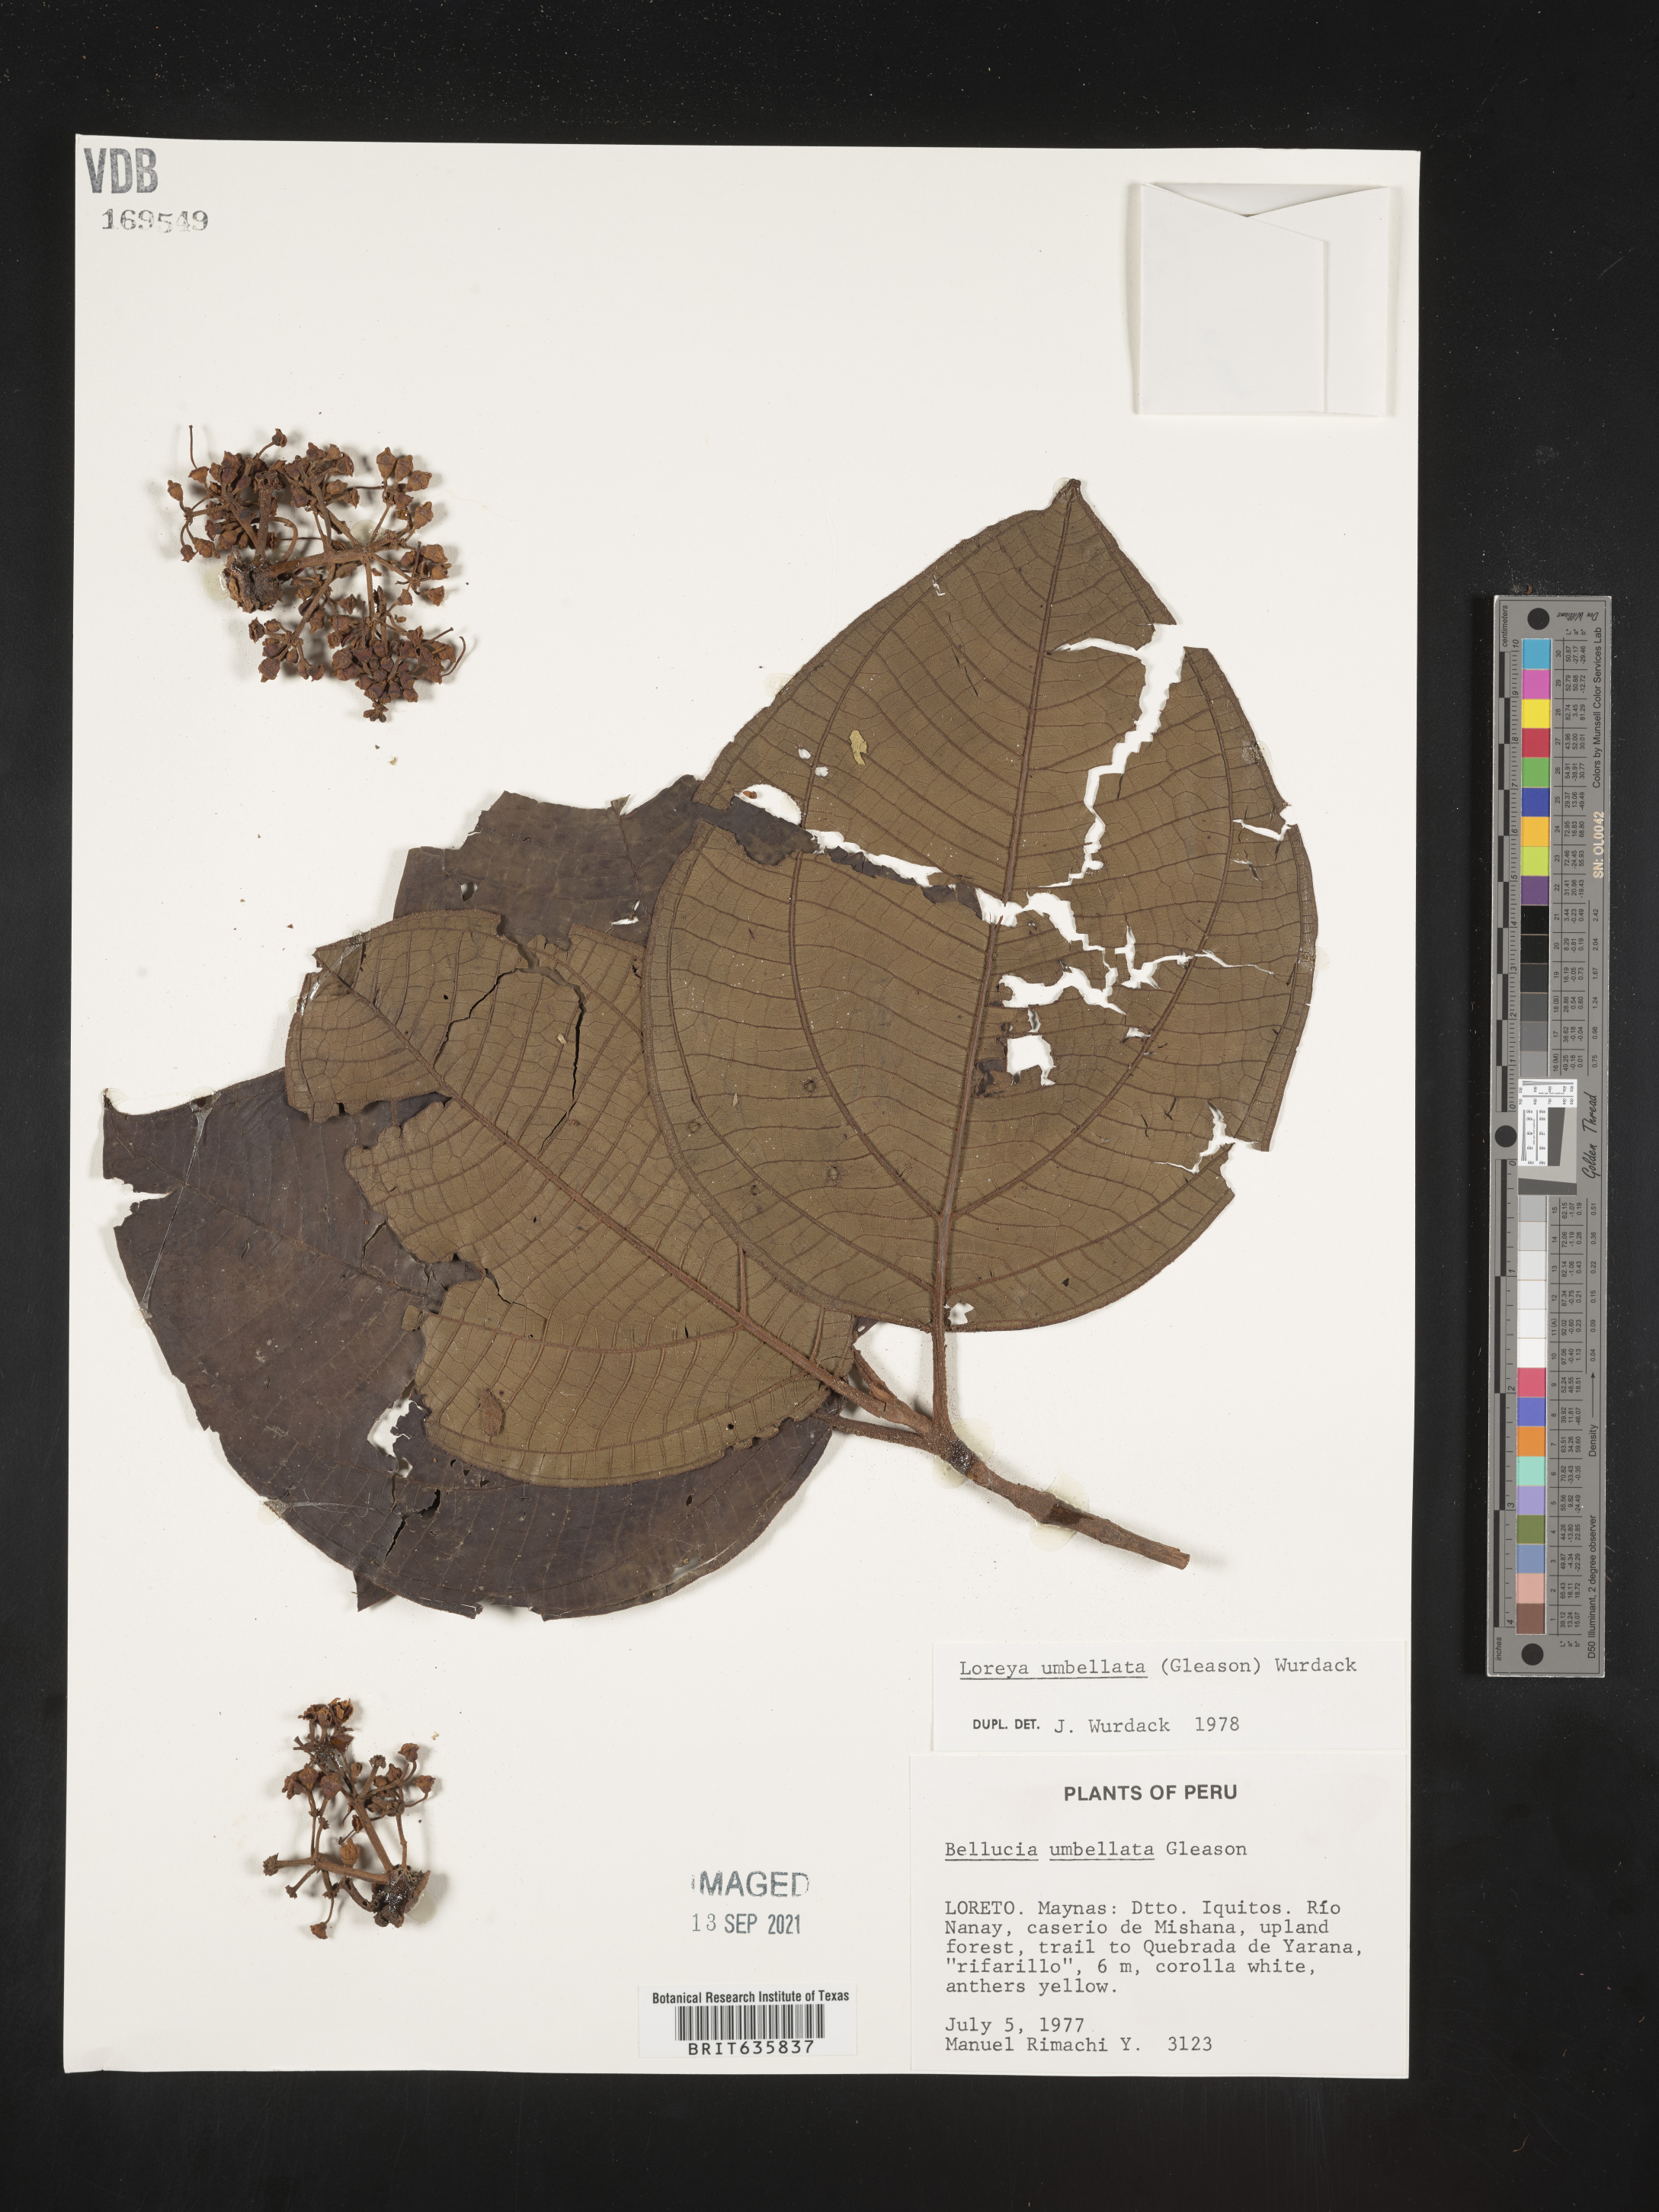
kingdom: Plantae
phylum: Tracheophyta
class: Magnoliopsida
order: Myrtales
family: Melastomataceae
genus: Bellucia
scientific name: Bellucia
